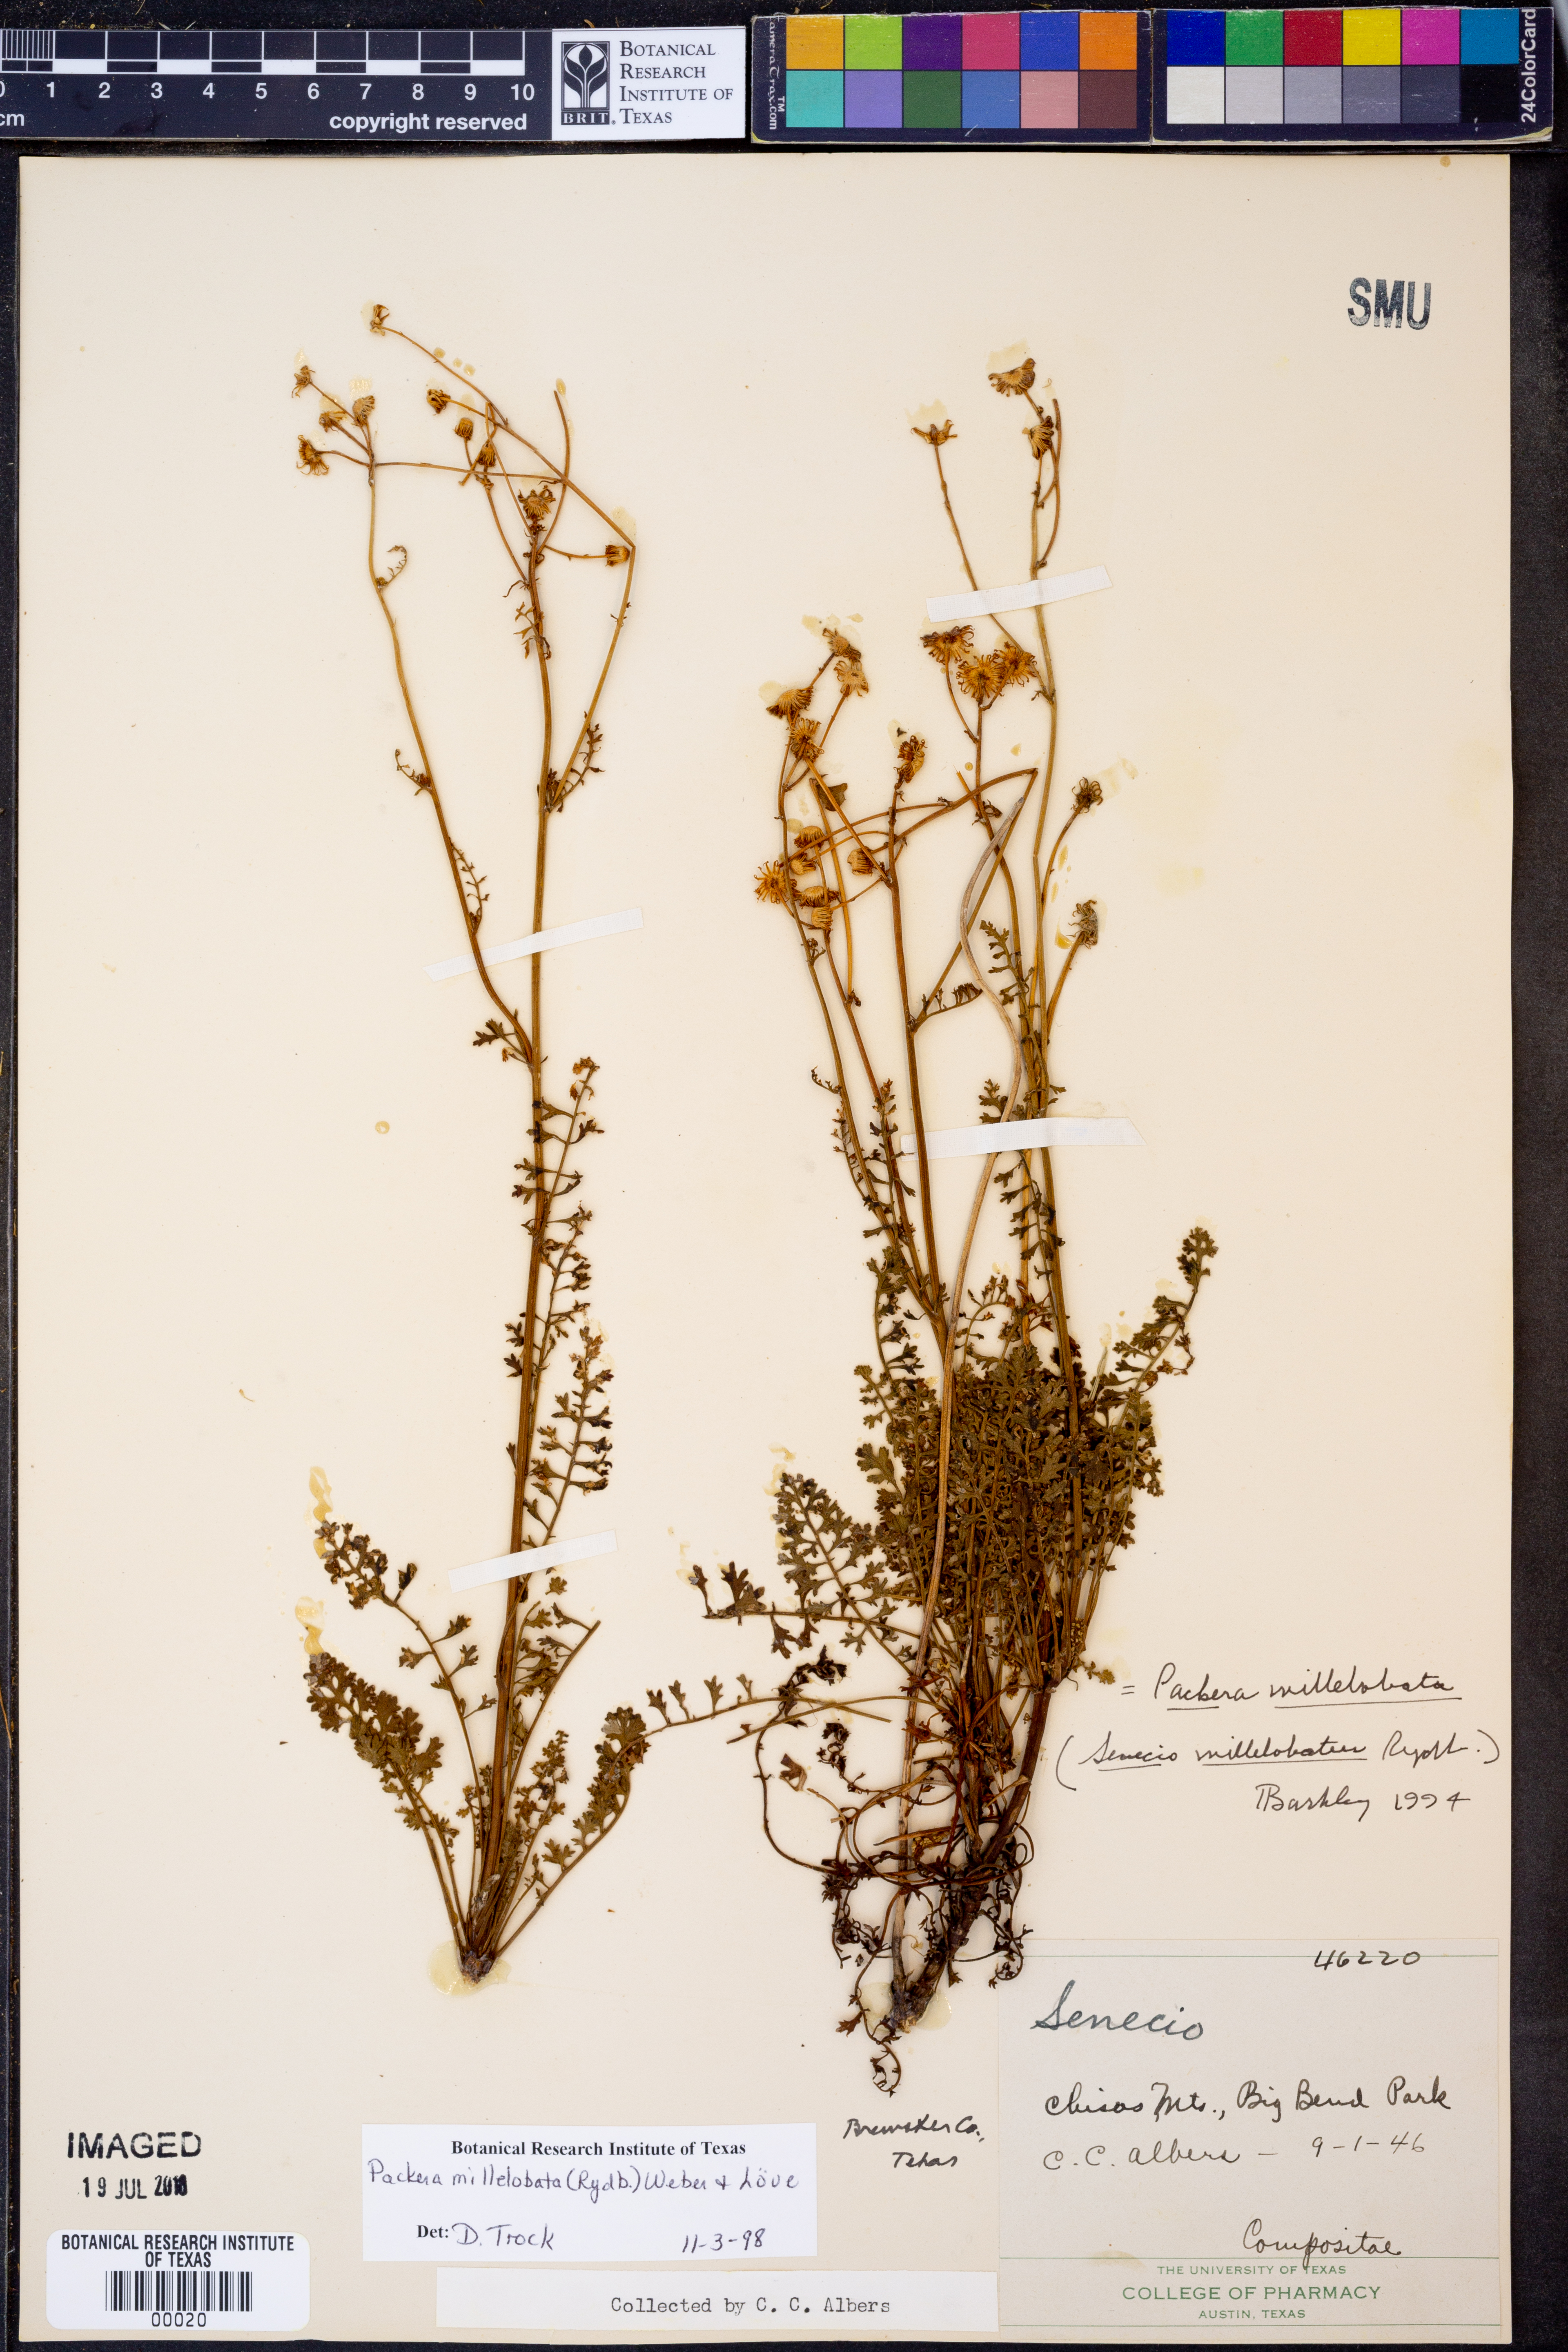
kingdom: Plantae
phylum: Tracheophyta
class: Magnoliopsida
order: Asterales
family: Asteraceae
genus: Packera
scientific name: Packera millelobata
